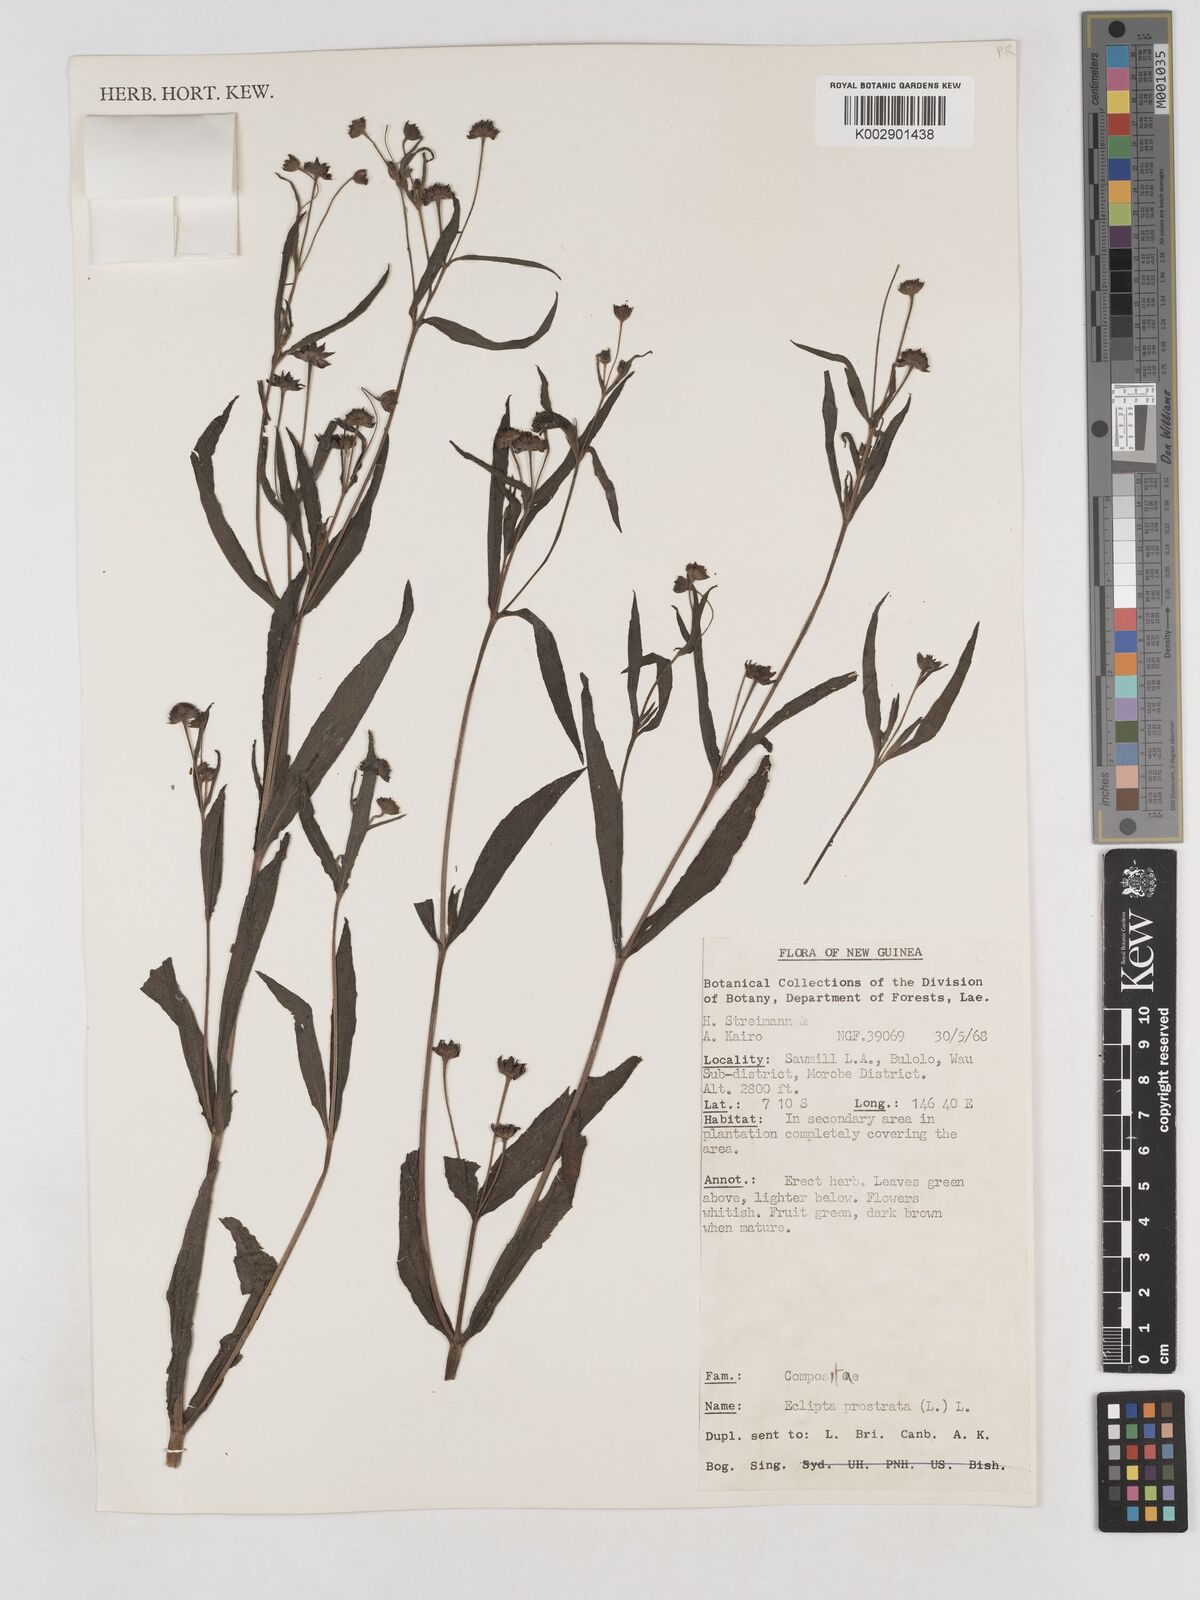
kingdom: Plantae
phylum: Tracheophyta
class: Magnoliopsida
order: Asterales
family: Asteraceae
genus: Eclipta
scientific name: Eclipta prostrata
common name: False daisy
